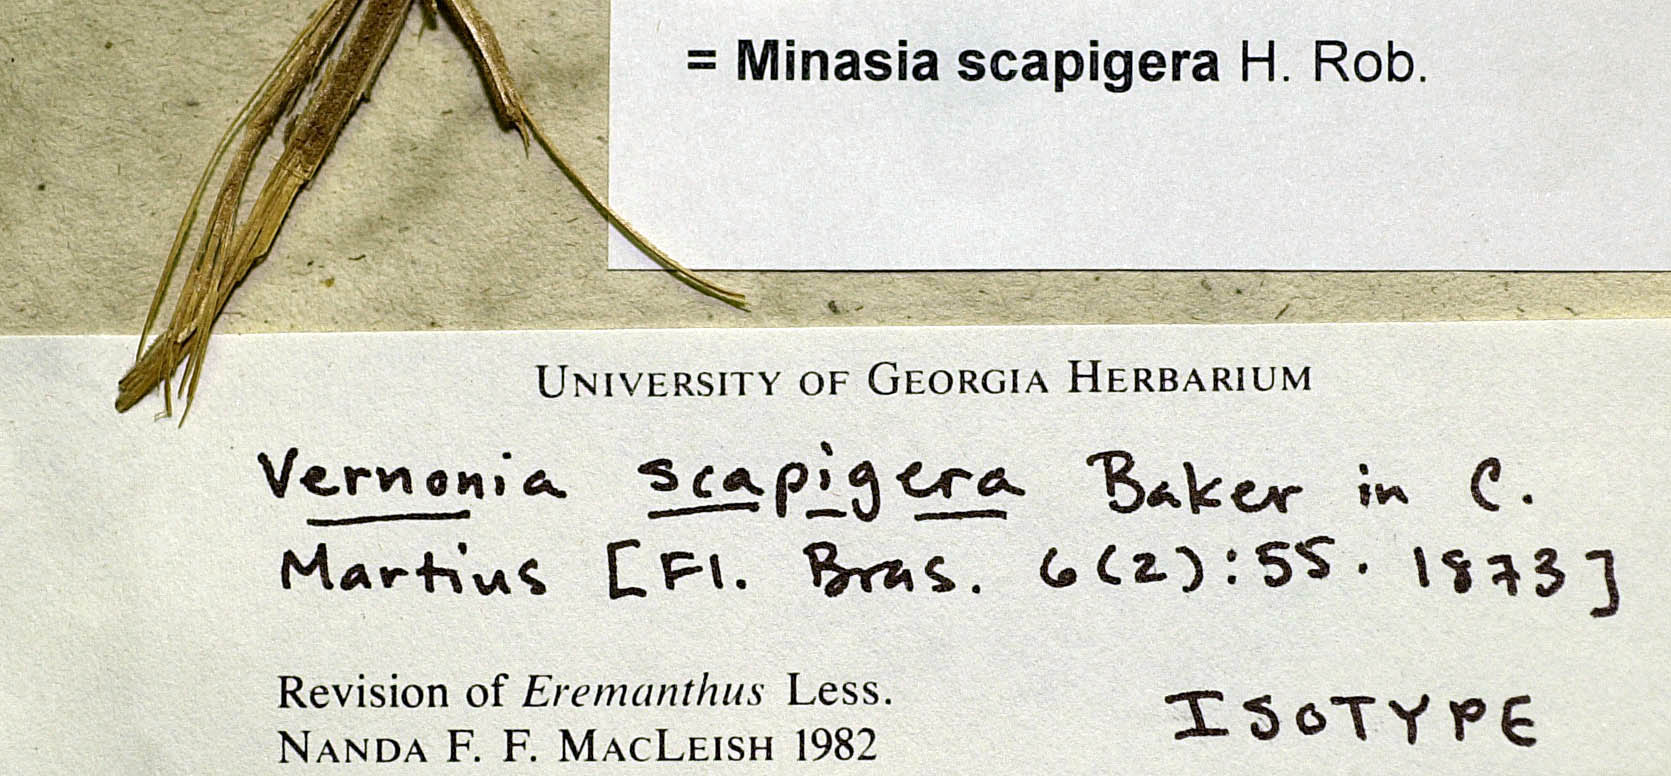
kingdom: Plantae
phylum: Tracheophyta
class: Magnoliopsida
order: Asterales
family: Asteraceae
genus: Minasia
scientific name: Minasia scapigera
